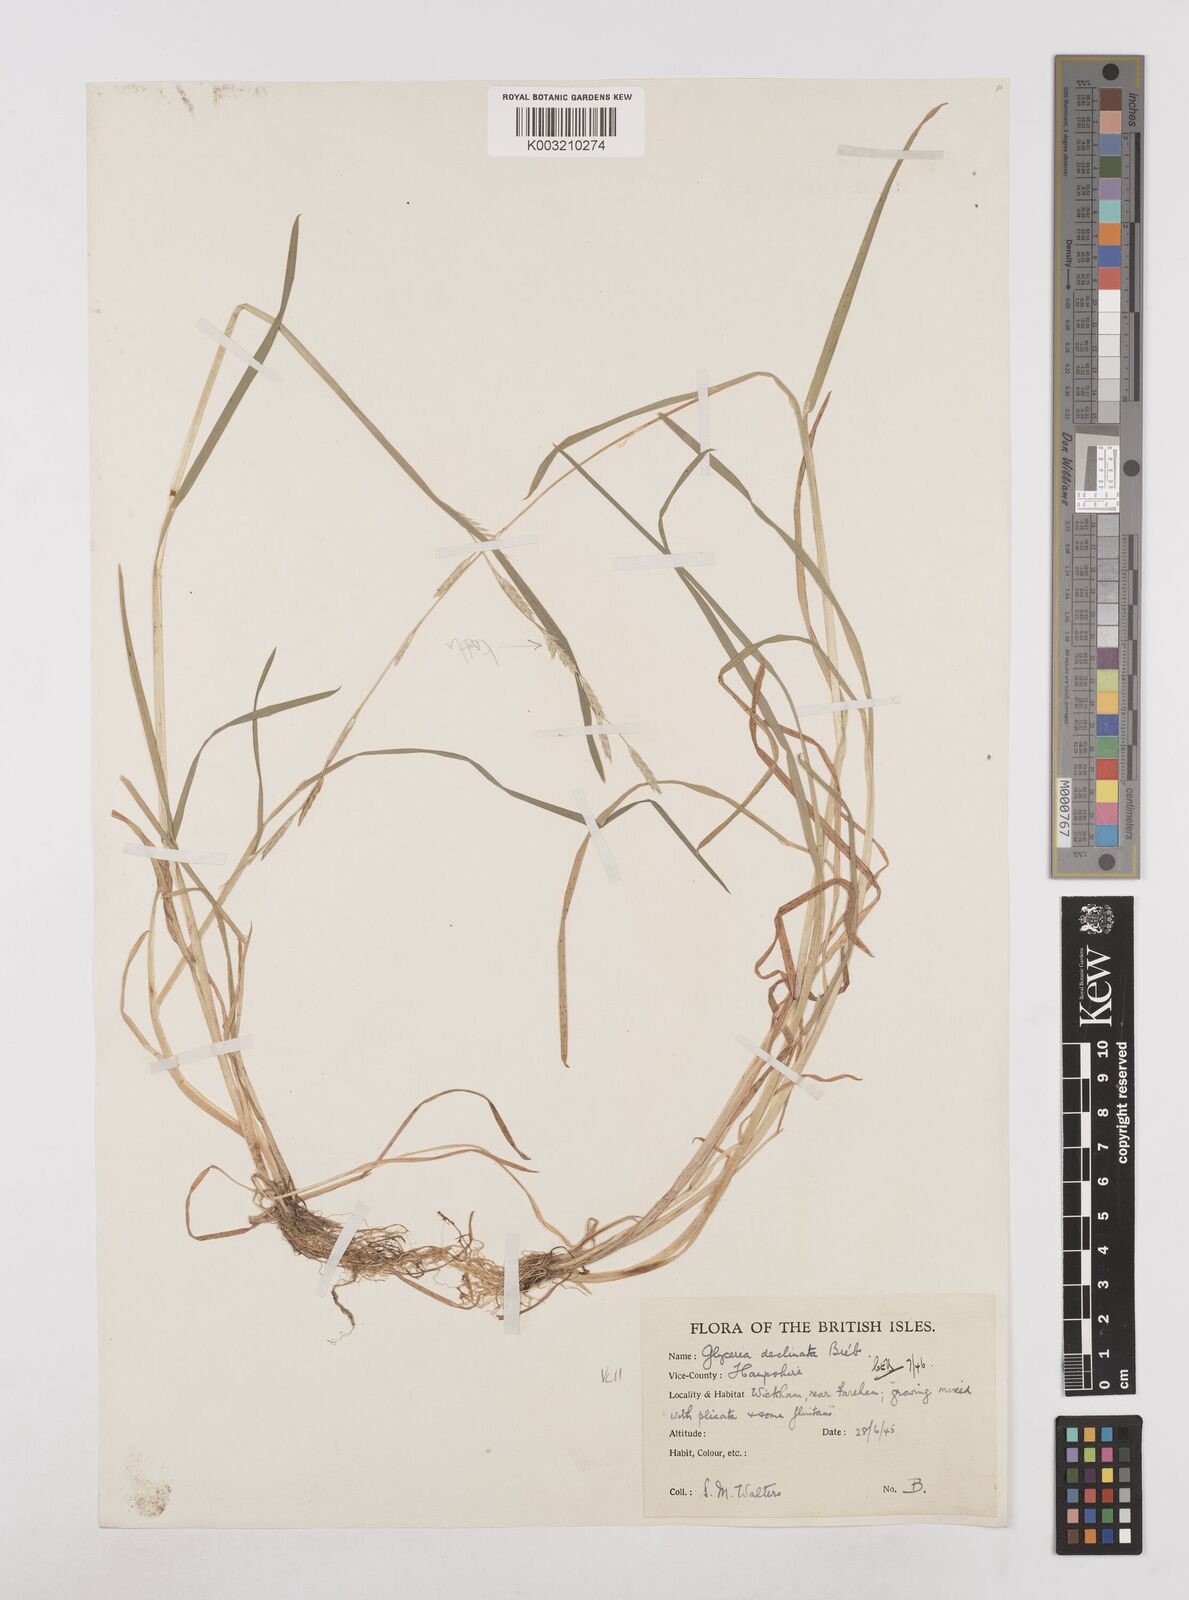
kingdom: Plantae
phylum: Tracheophyta
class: Liliopsida
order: Poales
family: Poaceae
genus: Glyceria
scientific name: Glyceria declinata
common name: Small sweet-grass
